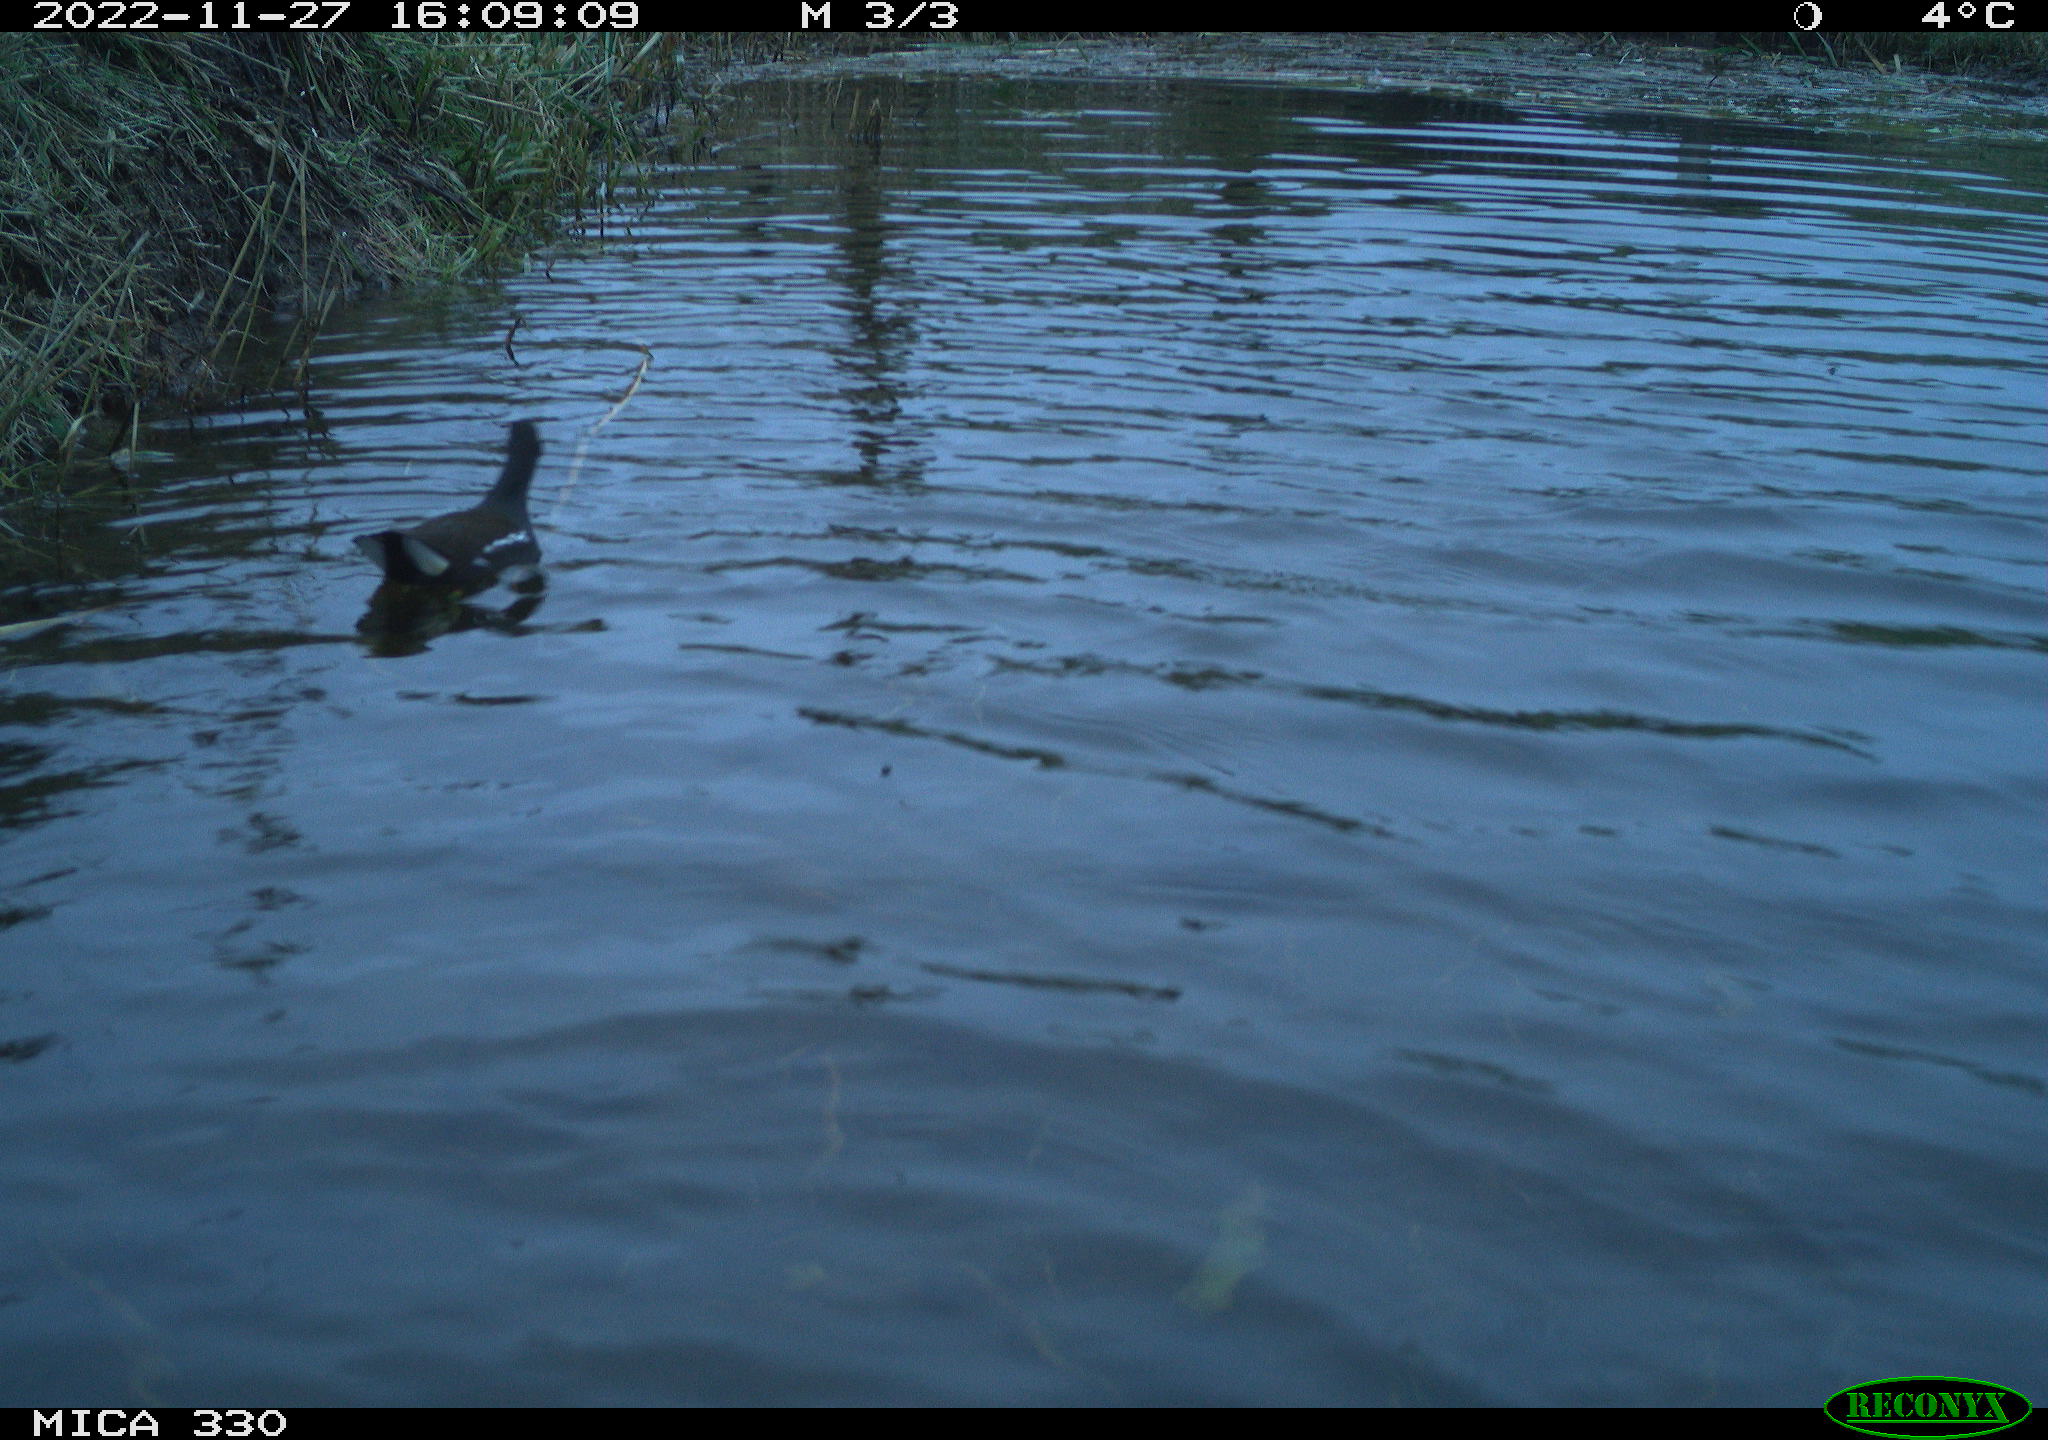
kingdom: Animalia
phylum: Chordata
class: Aves
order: Gruiformes
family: Rallidae
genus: Gallinula
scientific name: Gallinula chloropus
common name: Common moorhen
